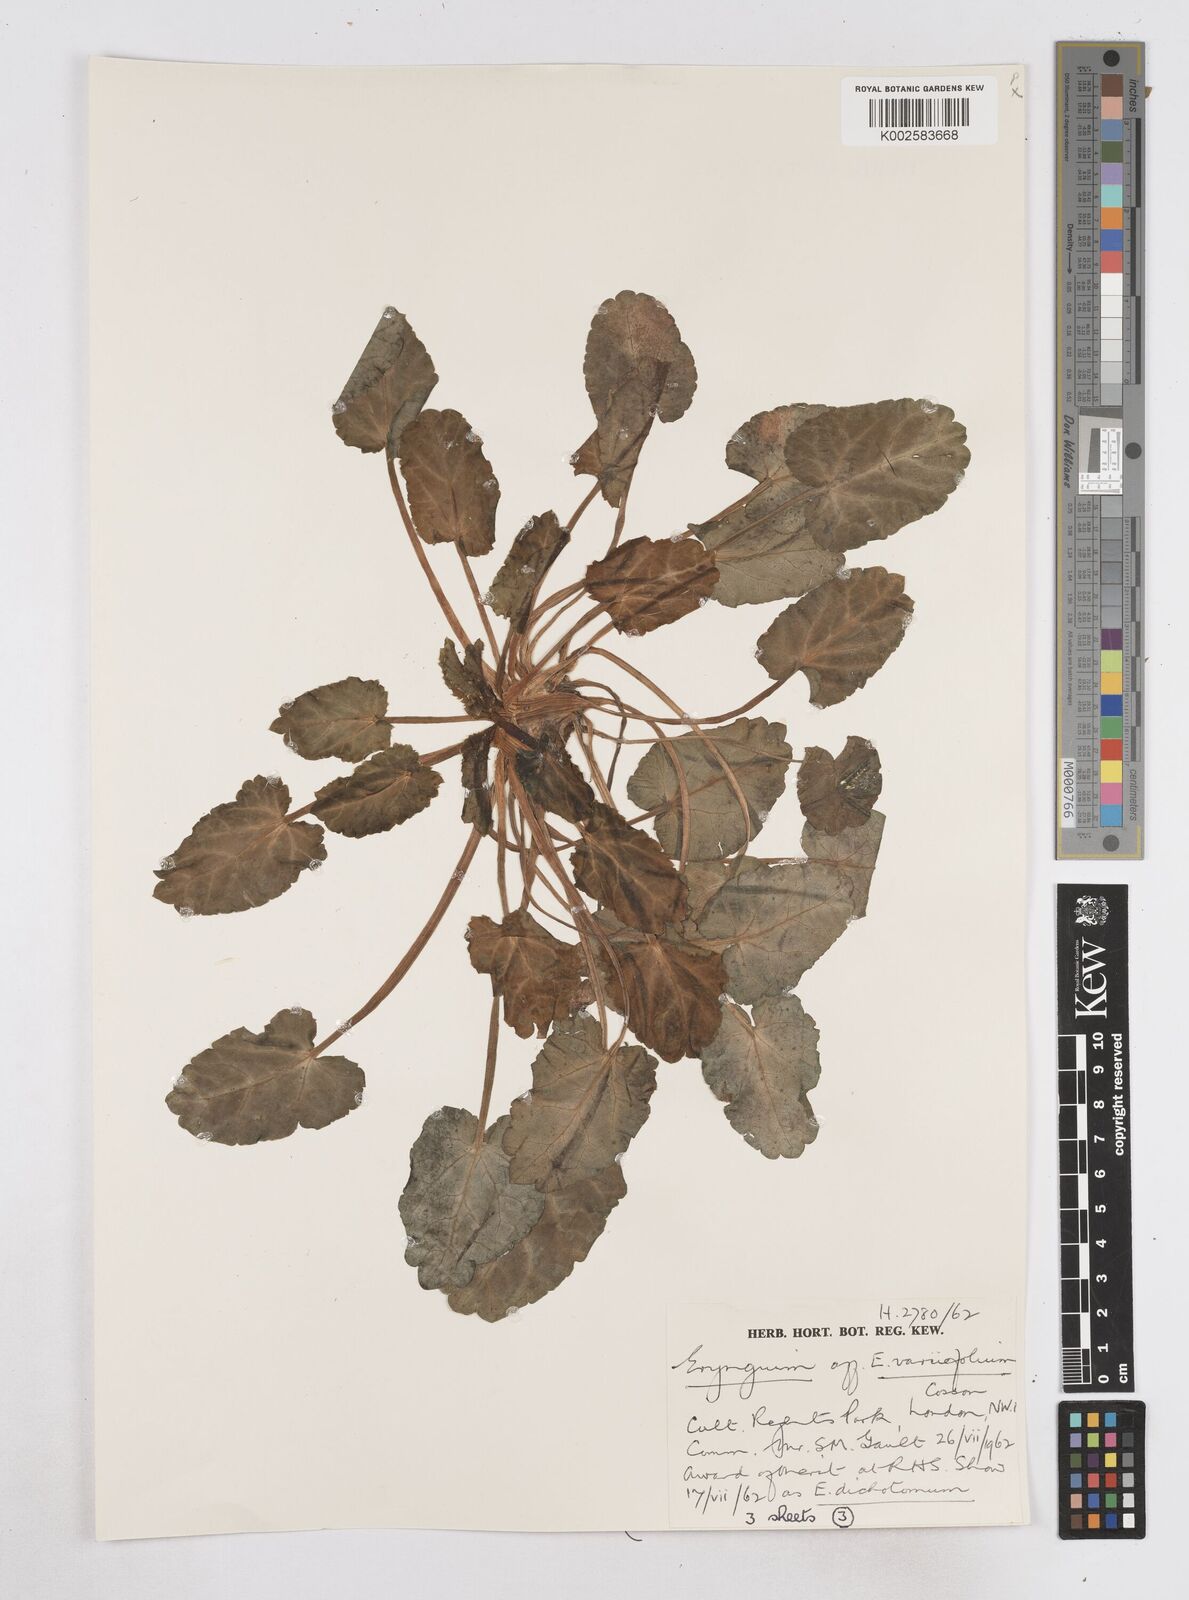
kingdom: Plantae
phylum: Tracheophyta
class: Magnoliopsida
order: Apiales
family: Apiaceae
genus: Eryngium
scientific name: Eryngium variifolium
